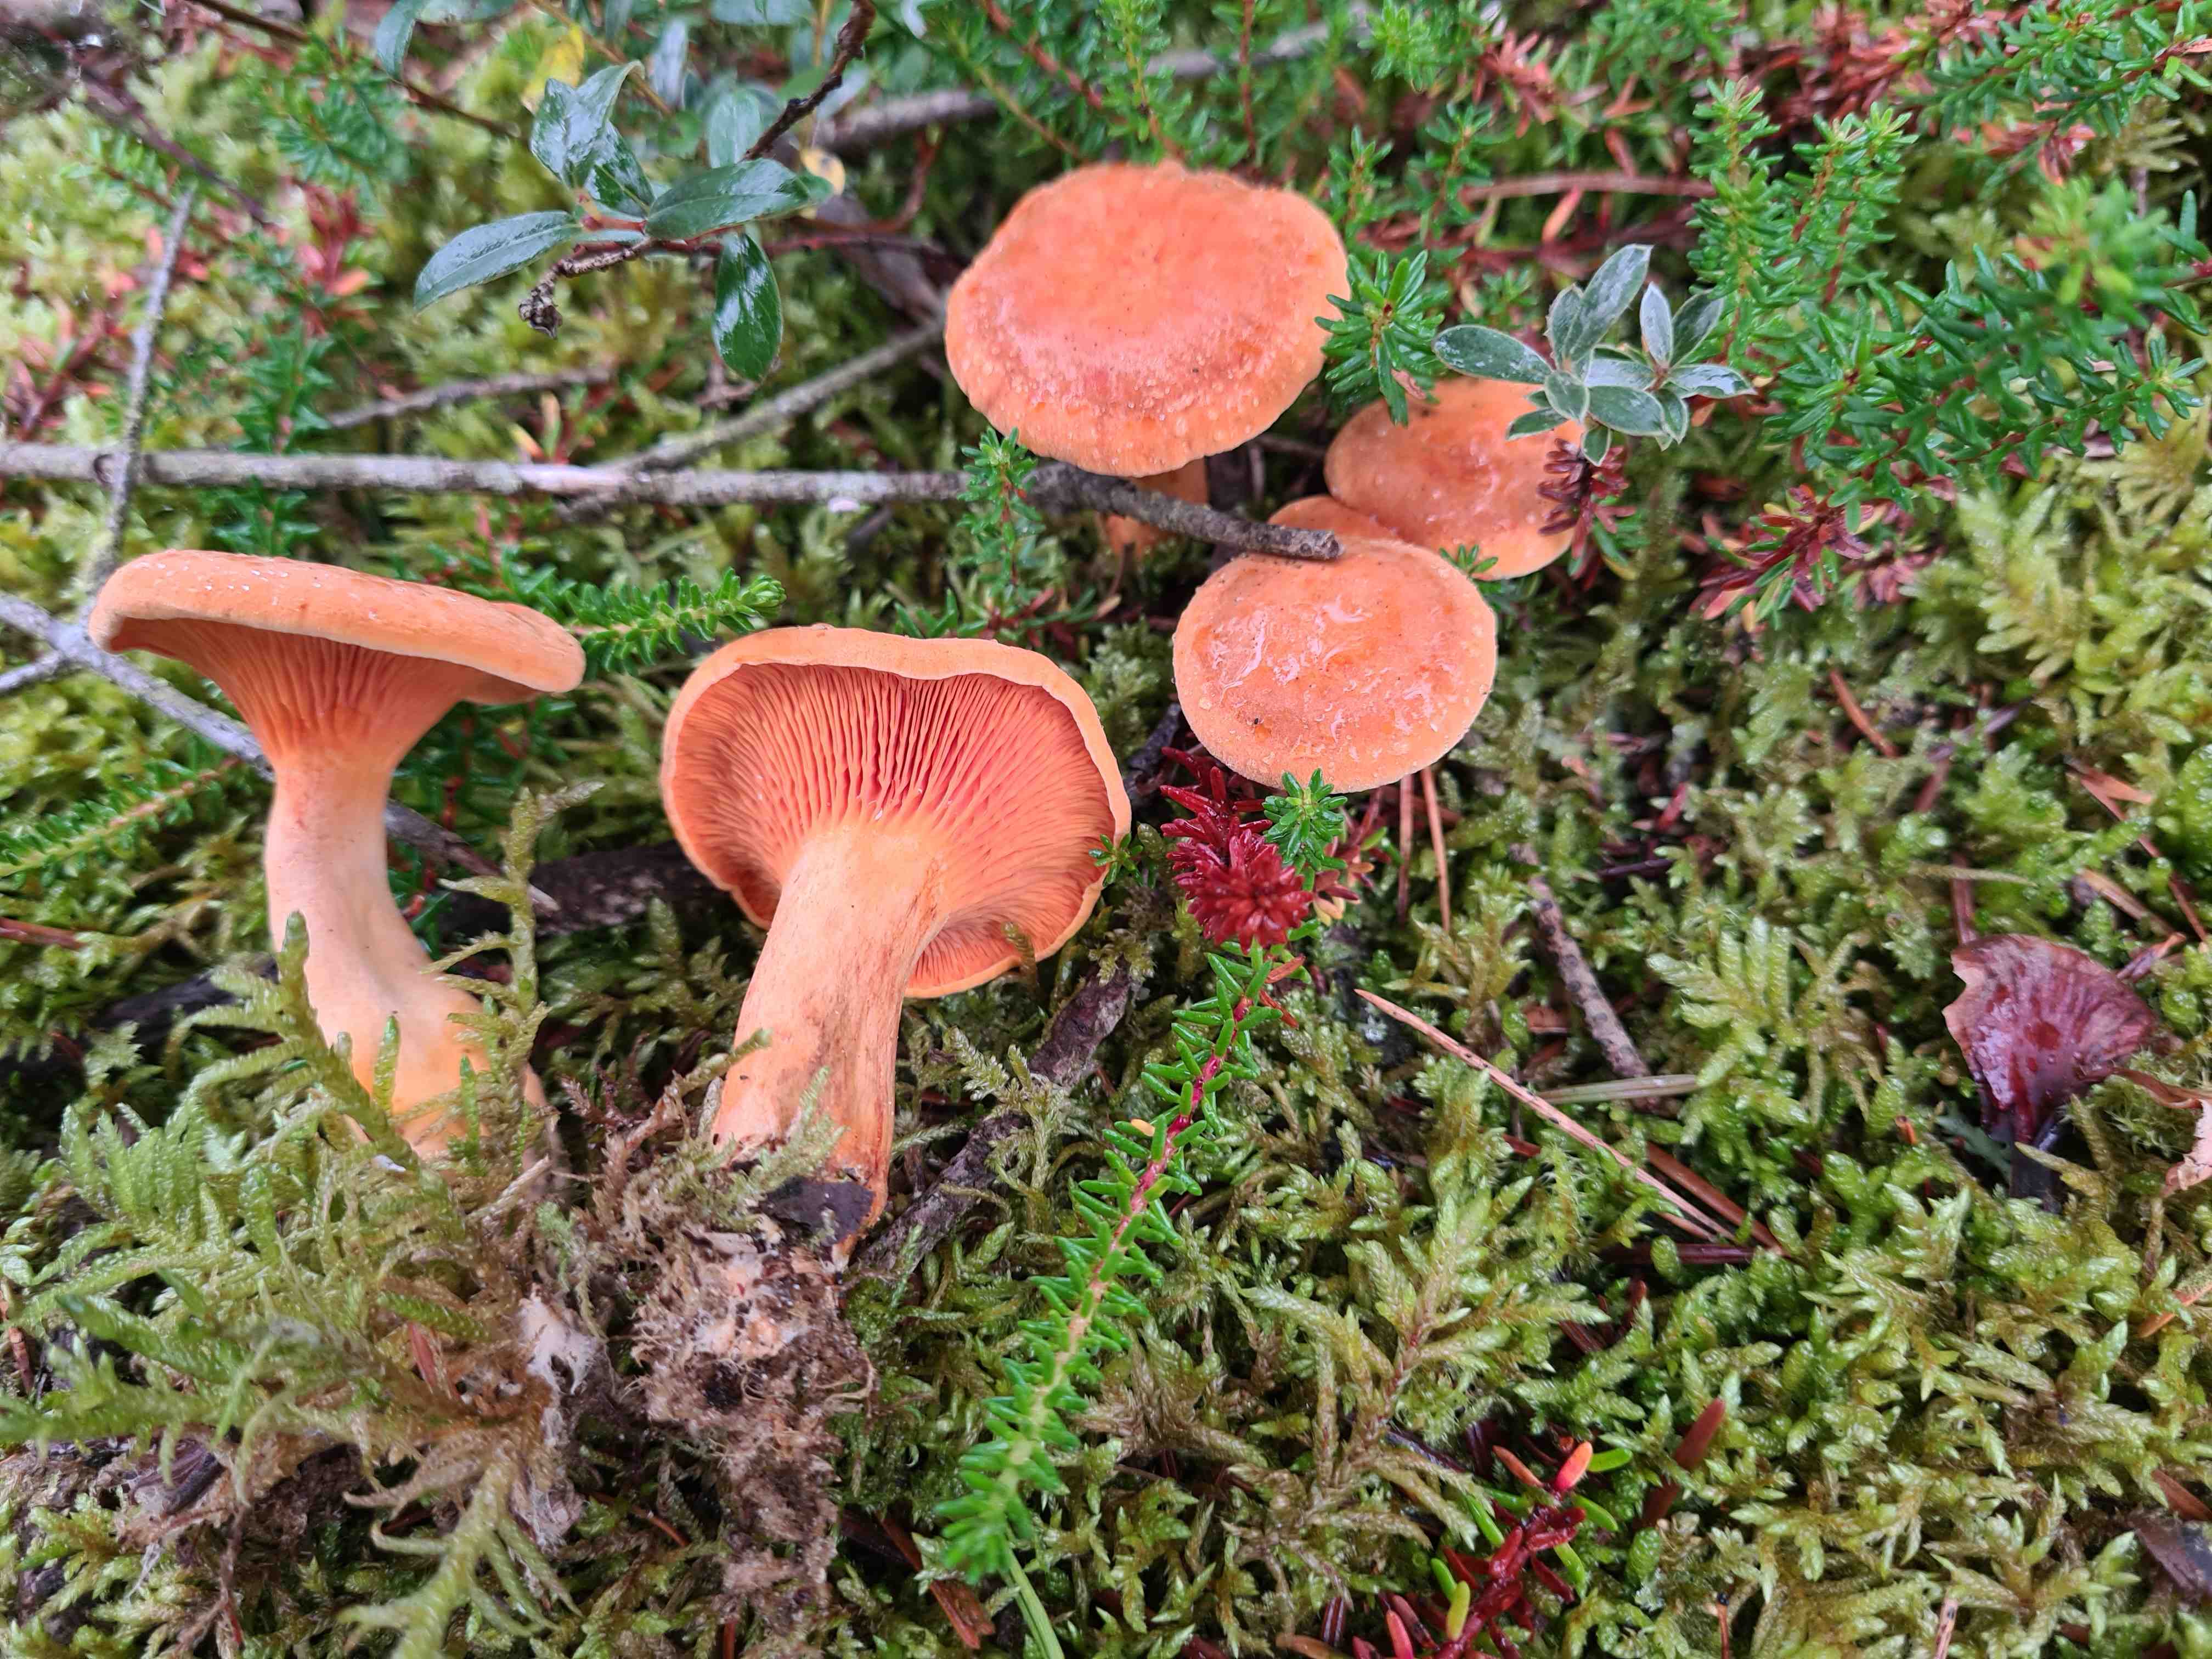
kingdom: Fungi
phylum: Basidiomycota
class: Agaricomycetes
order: Boletales
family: Hygrophoropsidaceae
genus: Hygrophoropsis
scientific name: Hygrophoropsis aurantiaca
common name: almindelig orangekantarel
